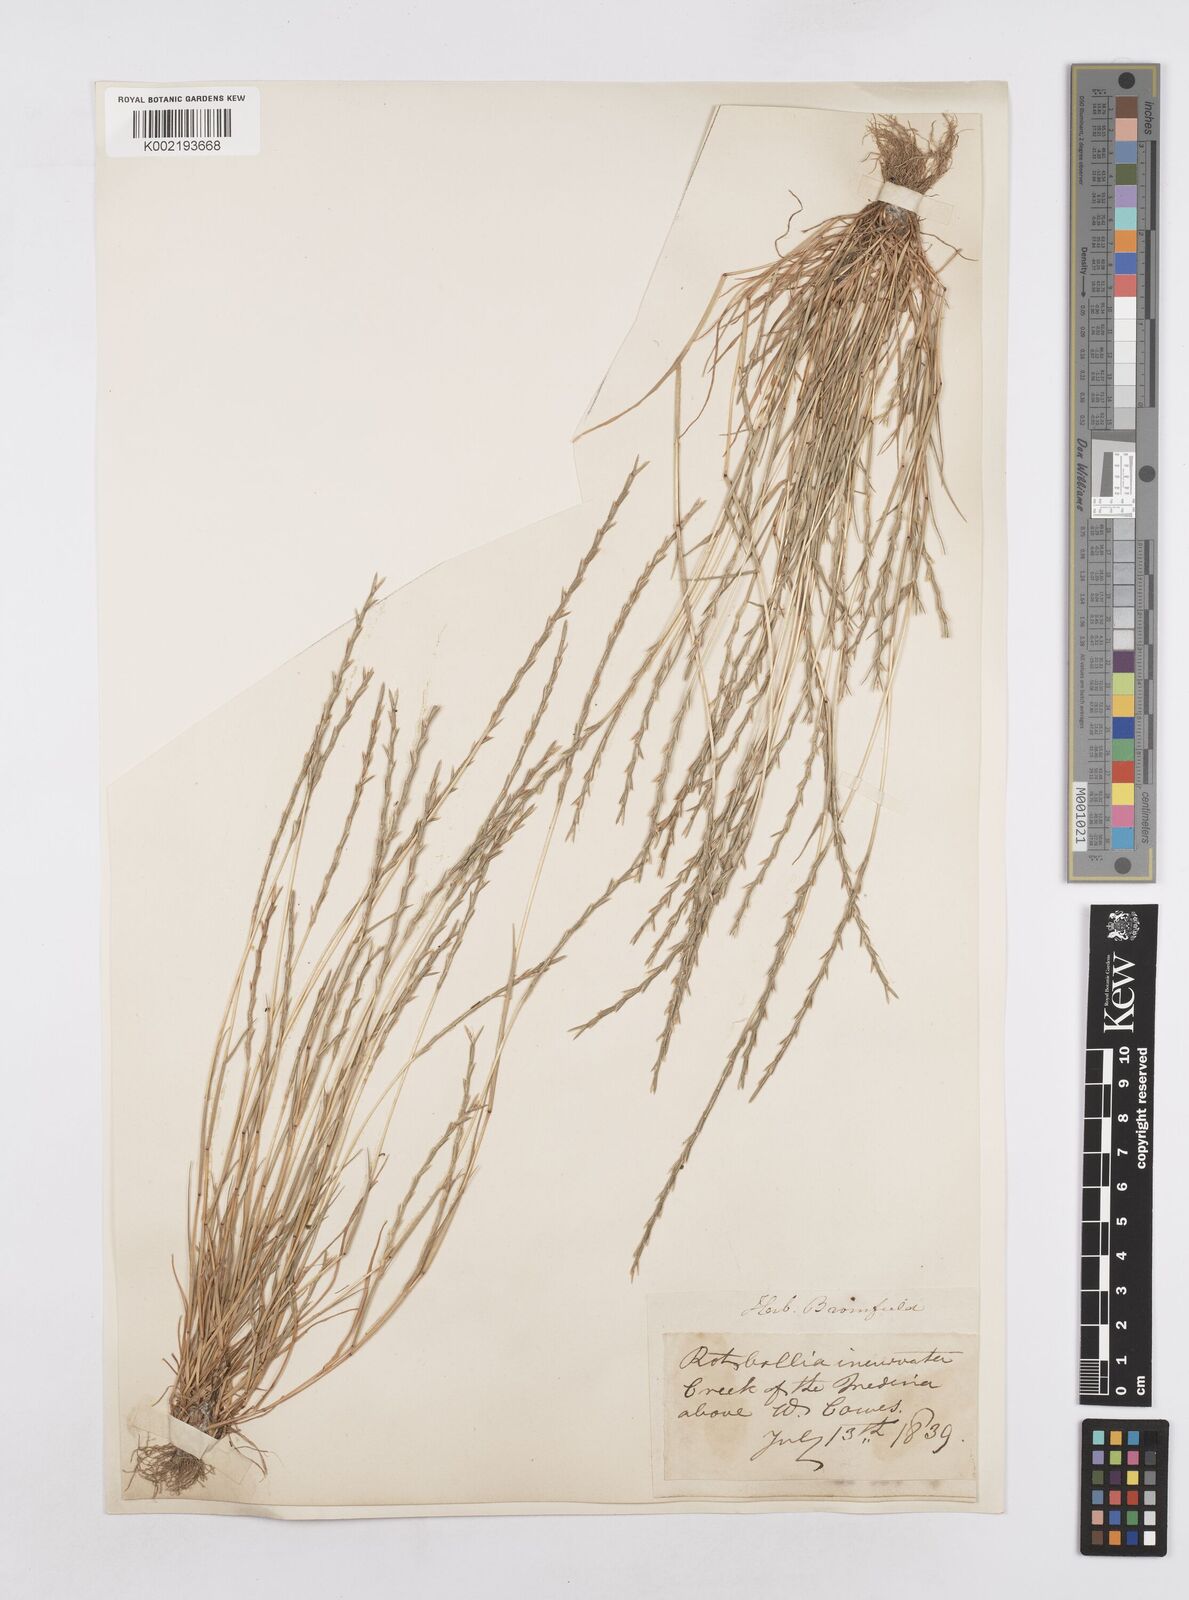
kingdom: Plantae
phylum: Tracheophyta
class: Liliopsida
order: Poales
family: Poaceae
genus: Parapholis
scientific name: Parapholis strigosa
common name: Hard-grass
